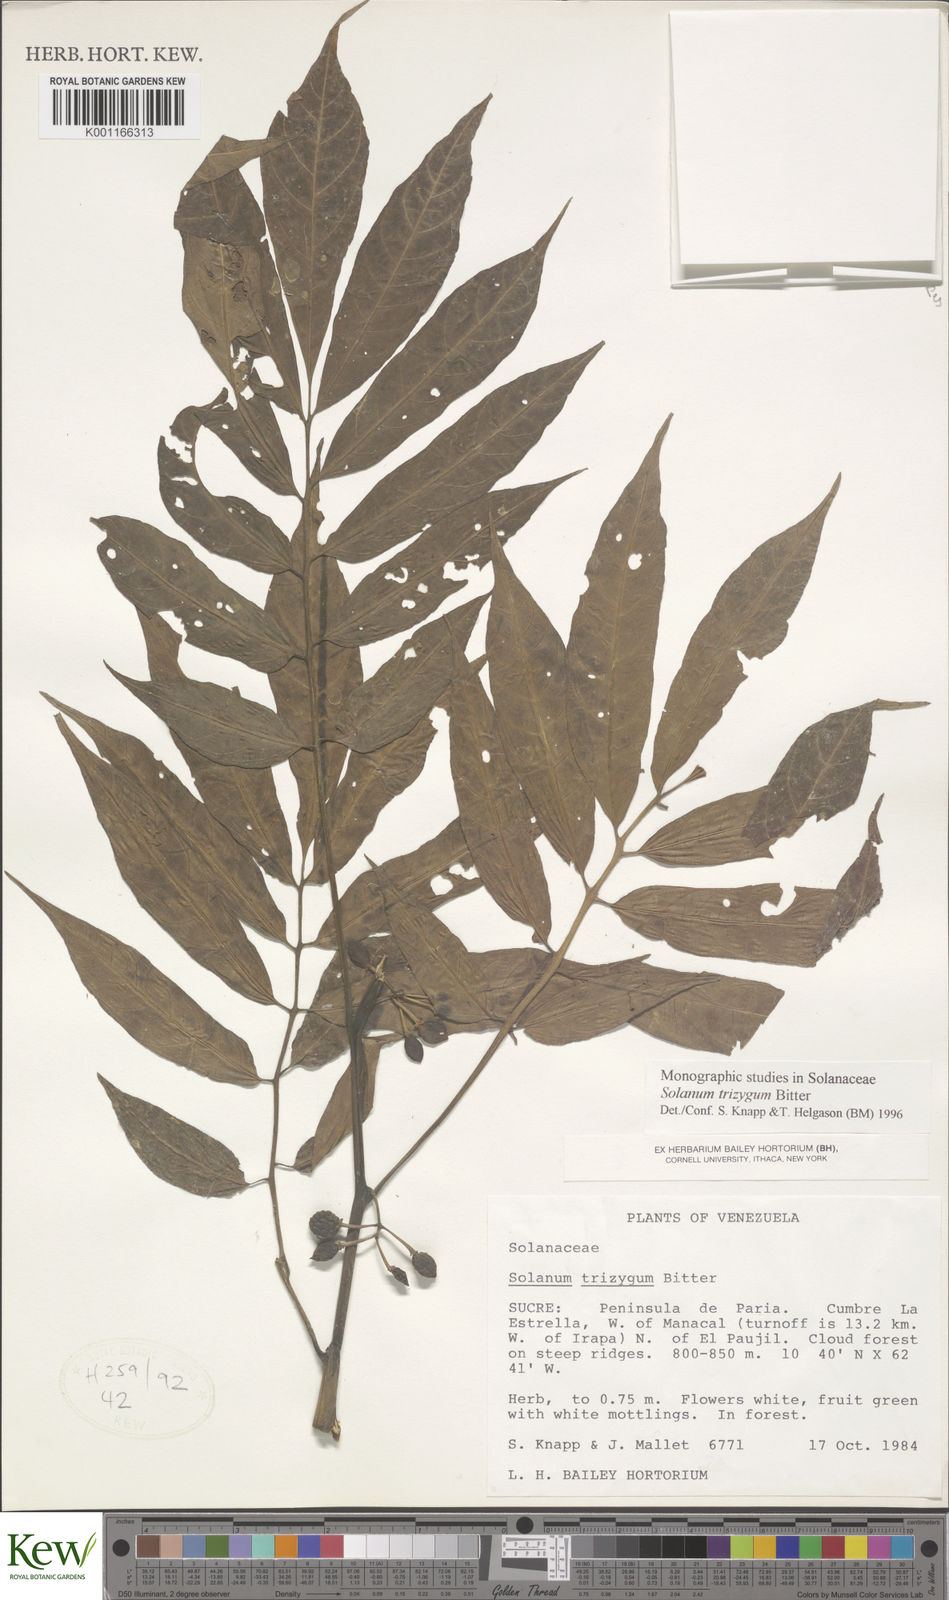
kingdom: Plantae
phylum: Tracheophyta
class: Magnoliopsida
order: Solanales
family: Solanaceae
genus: Solanum
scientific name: Solanum trizygum
